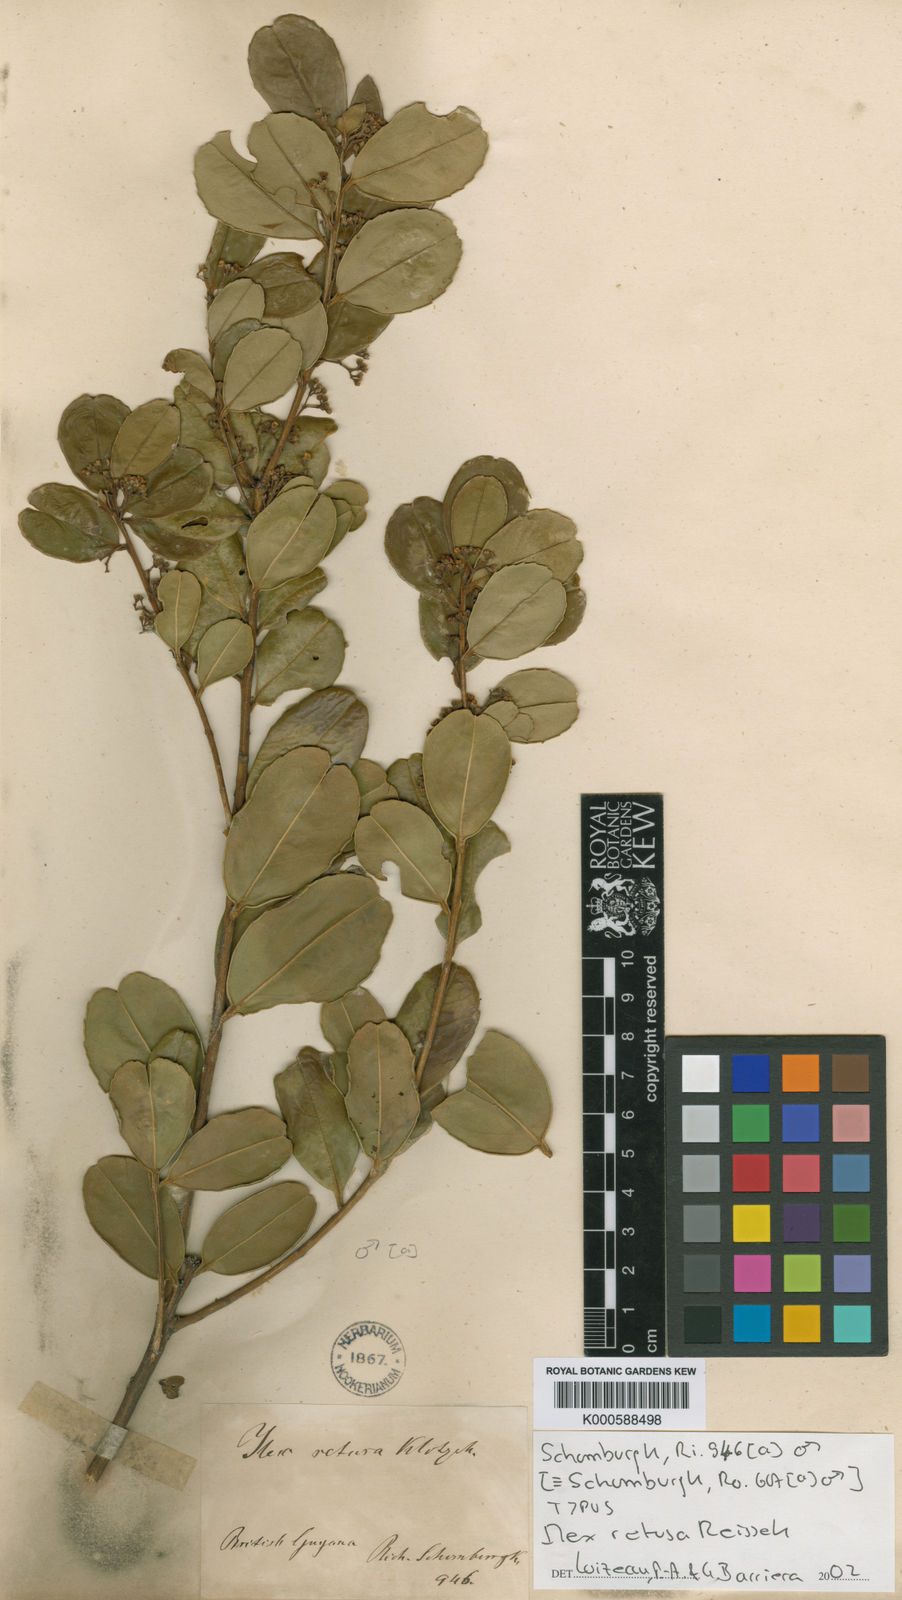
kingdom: Plantae
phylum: Tracheophyta
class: Magnoliopsida
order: Aquifoliales
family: Aquifoliaceae
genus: Ilex
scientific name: Ilex
